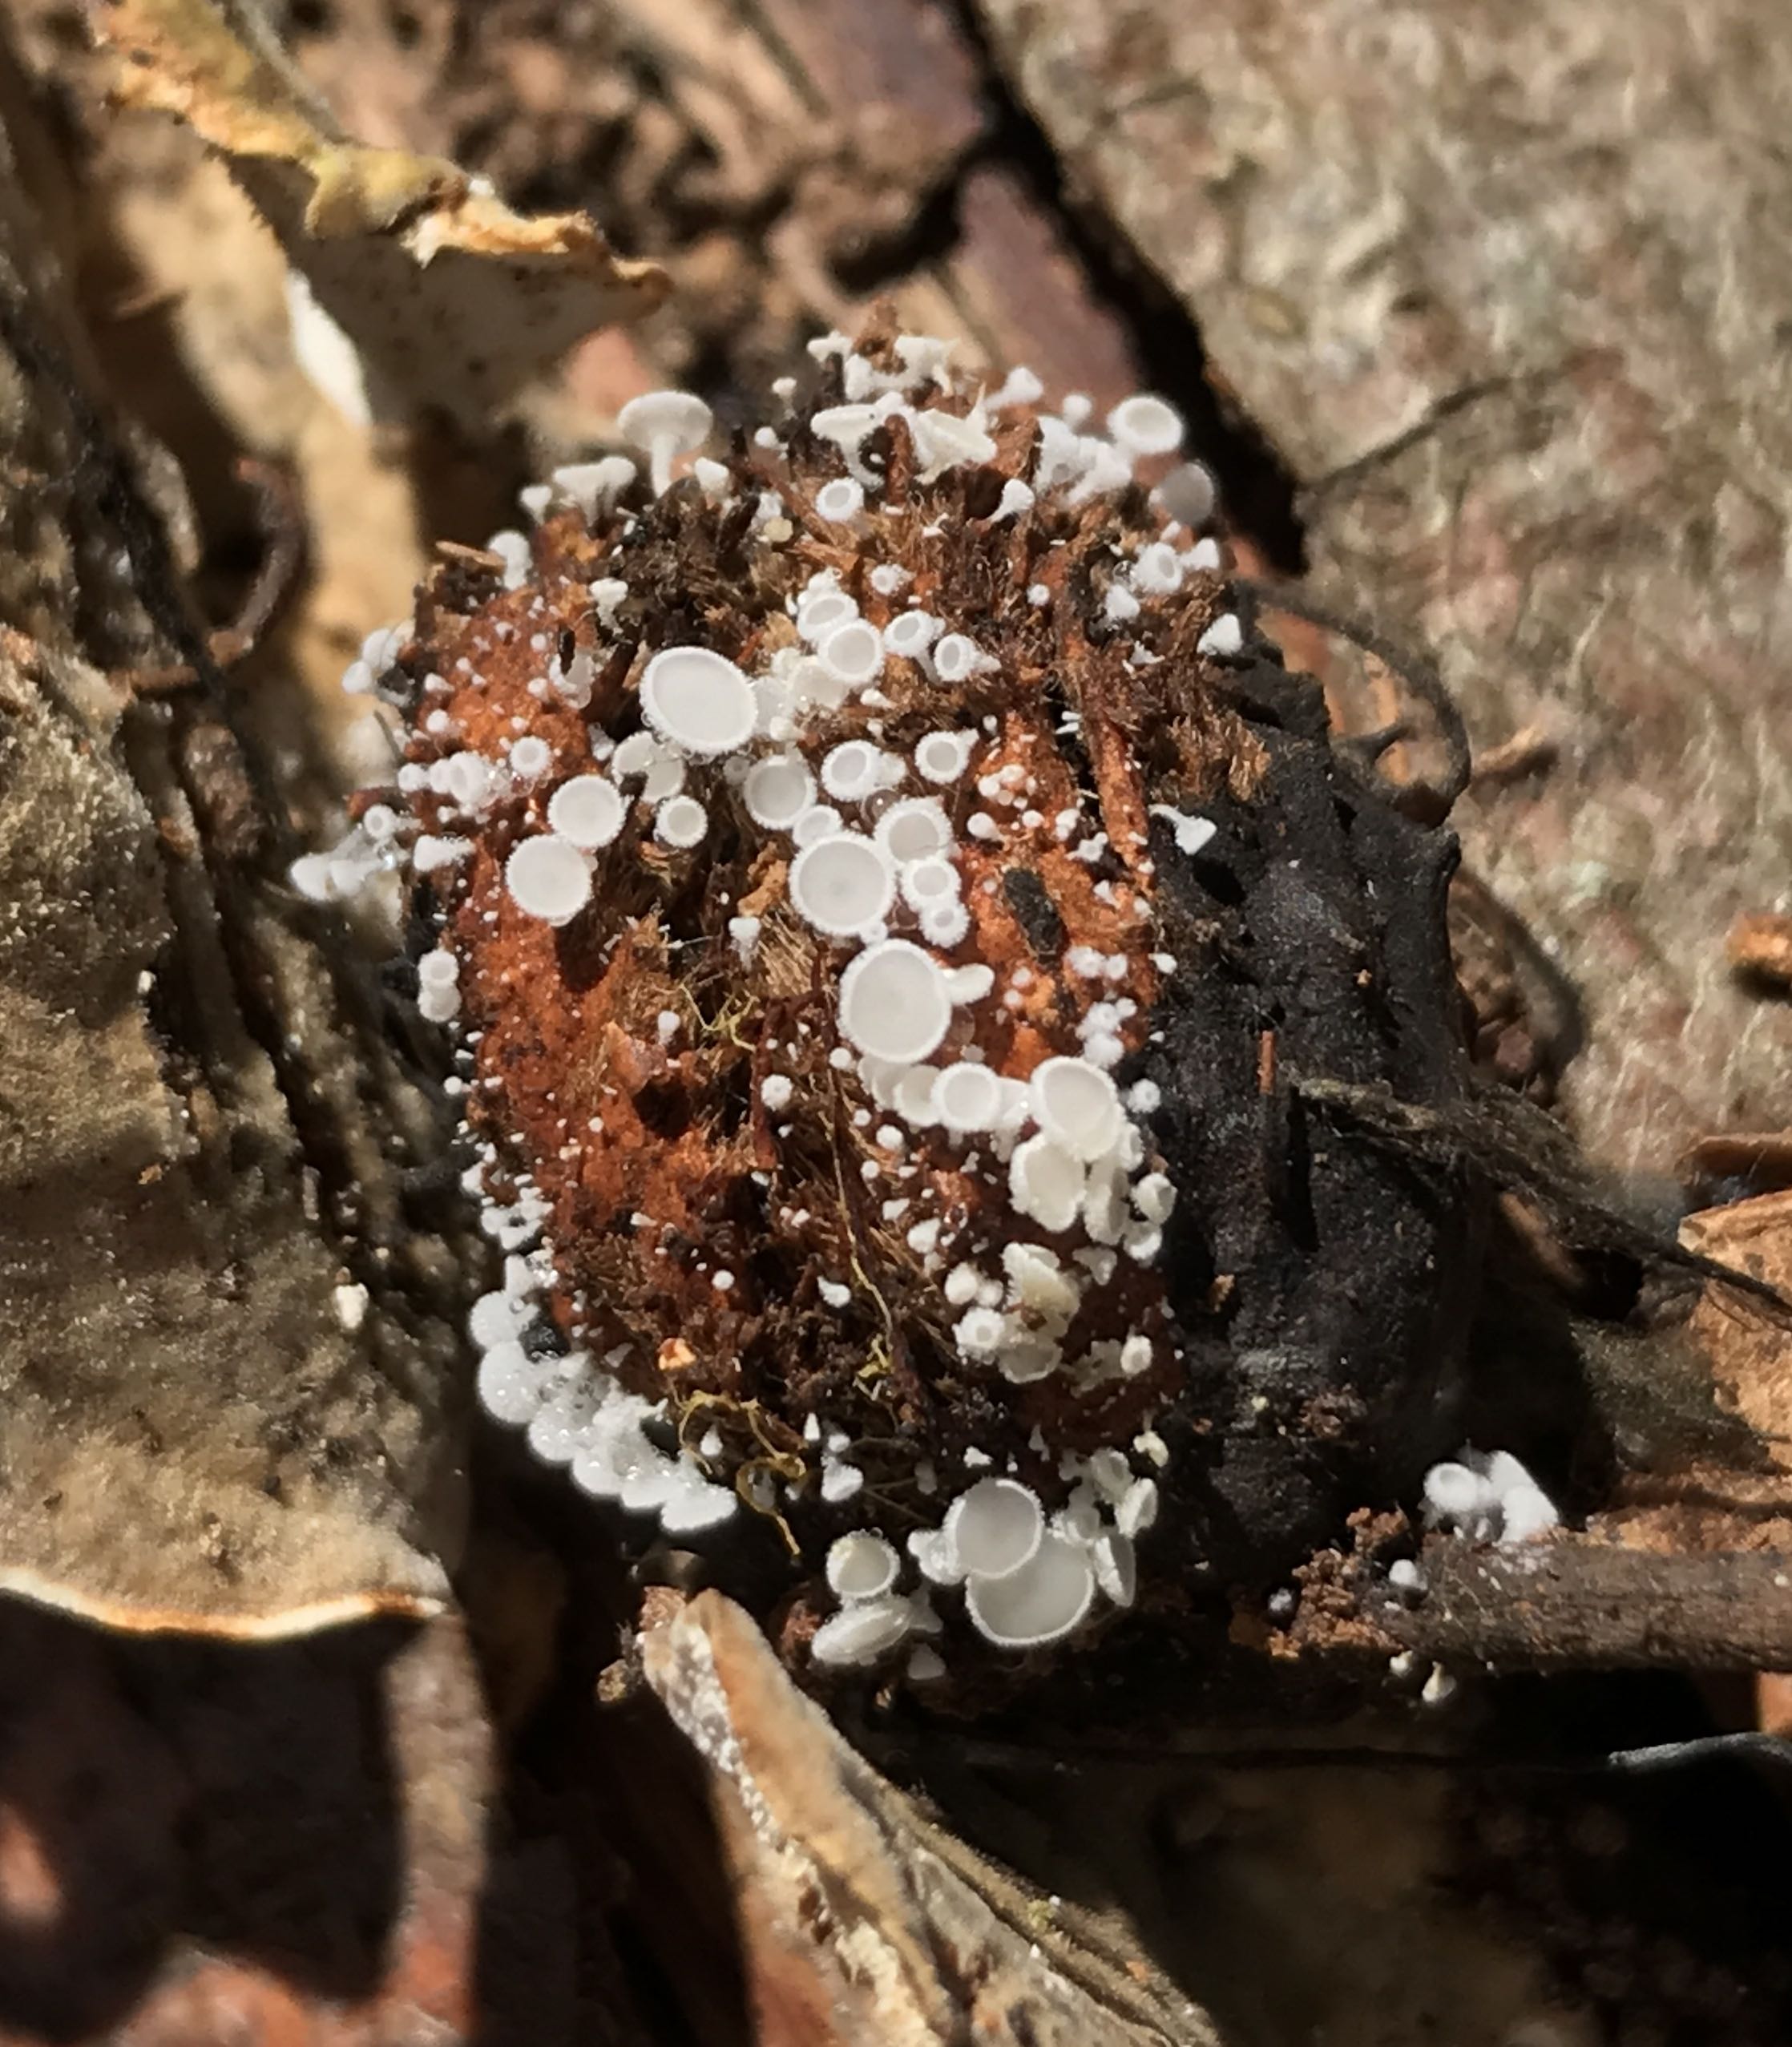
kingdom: Fungi
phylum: Ascomycota
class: Leotiomycetes
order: Helotiales
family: Lachnaceae
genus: Lachnum
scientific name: Lachnum virgineum
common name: jomfru-frynseskive
